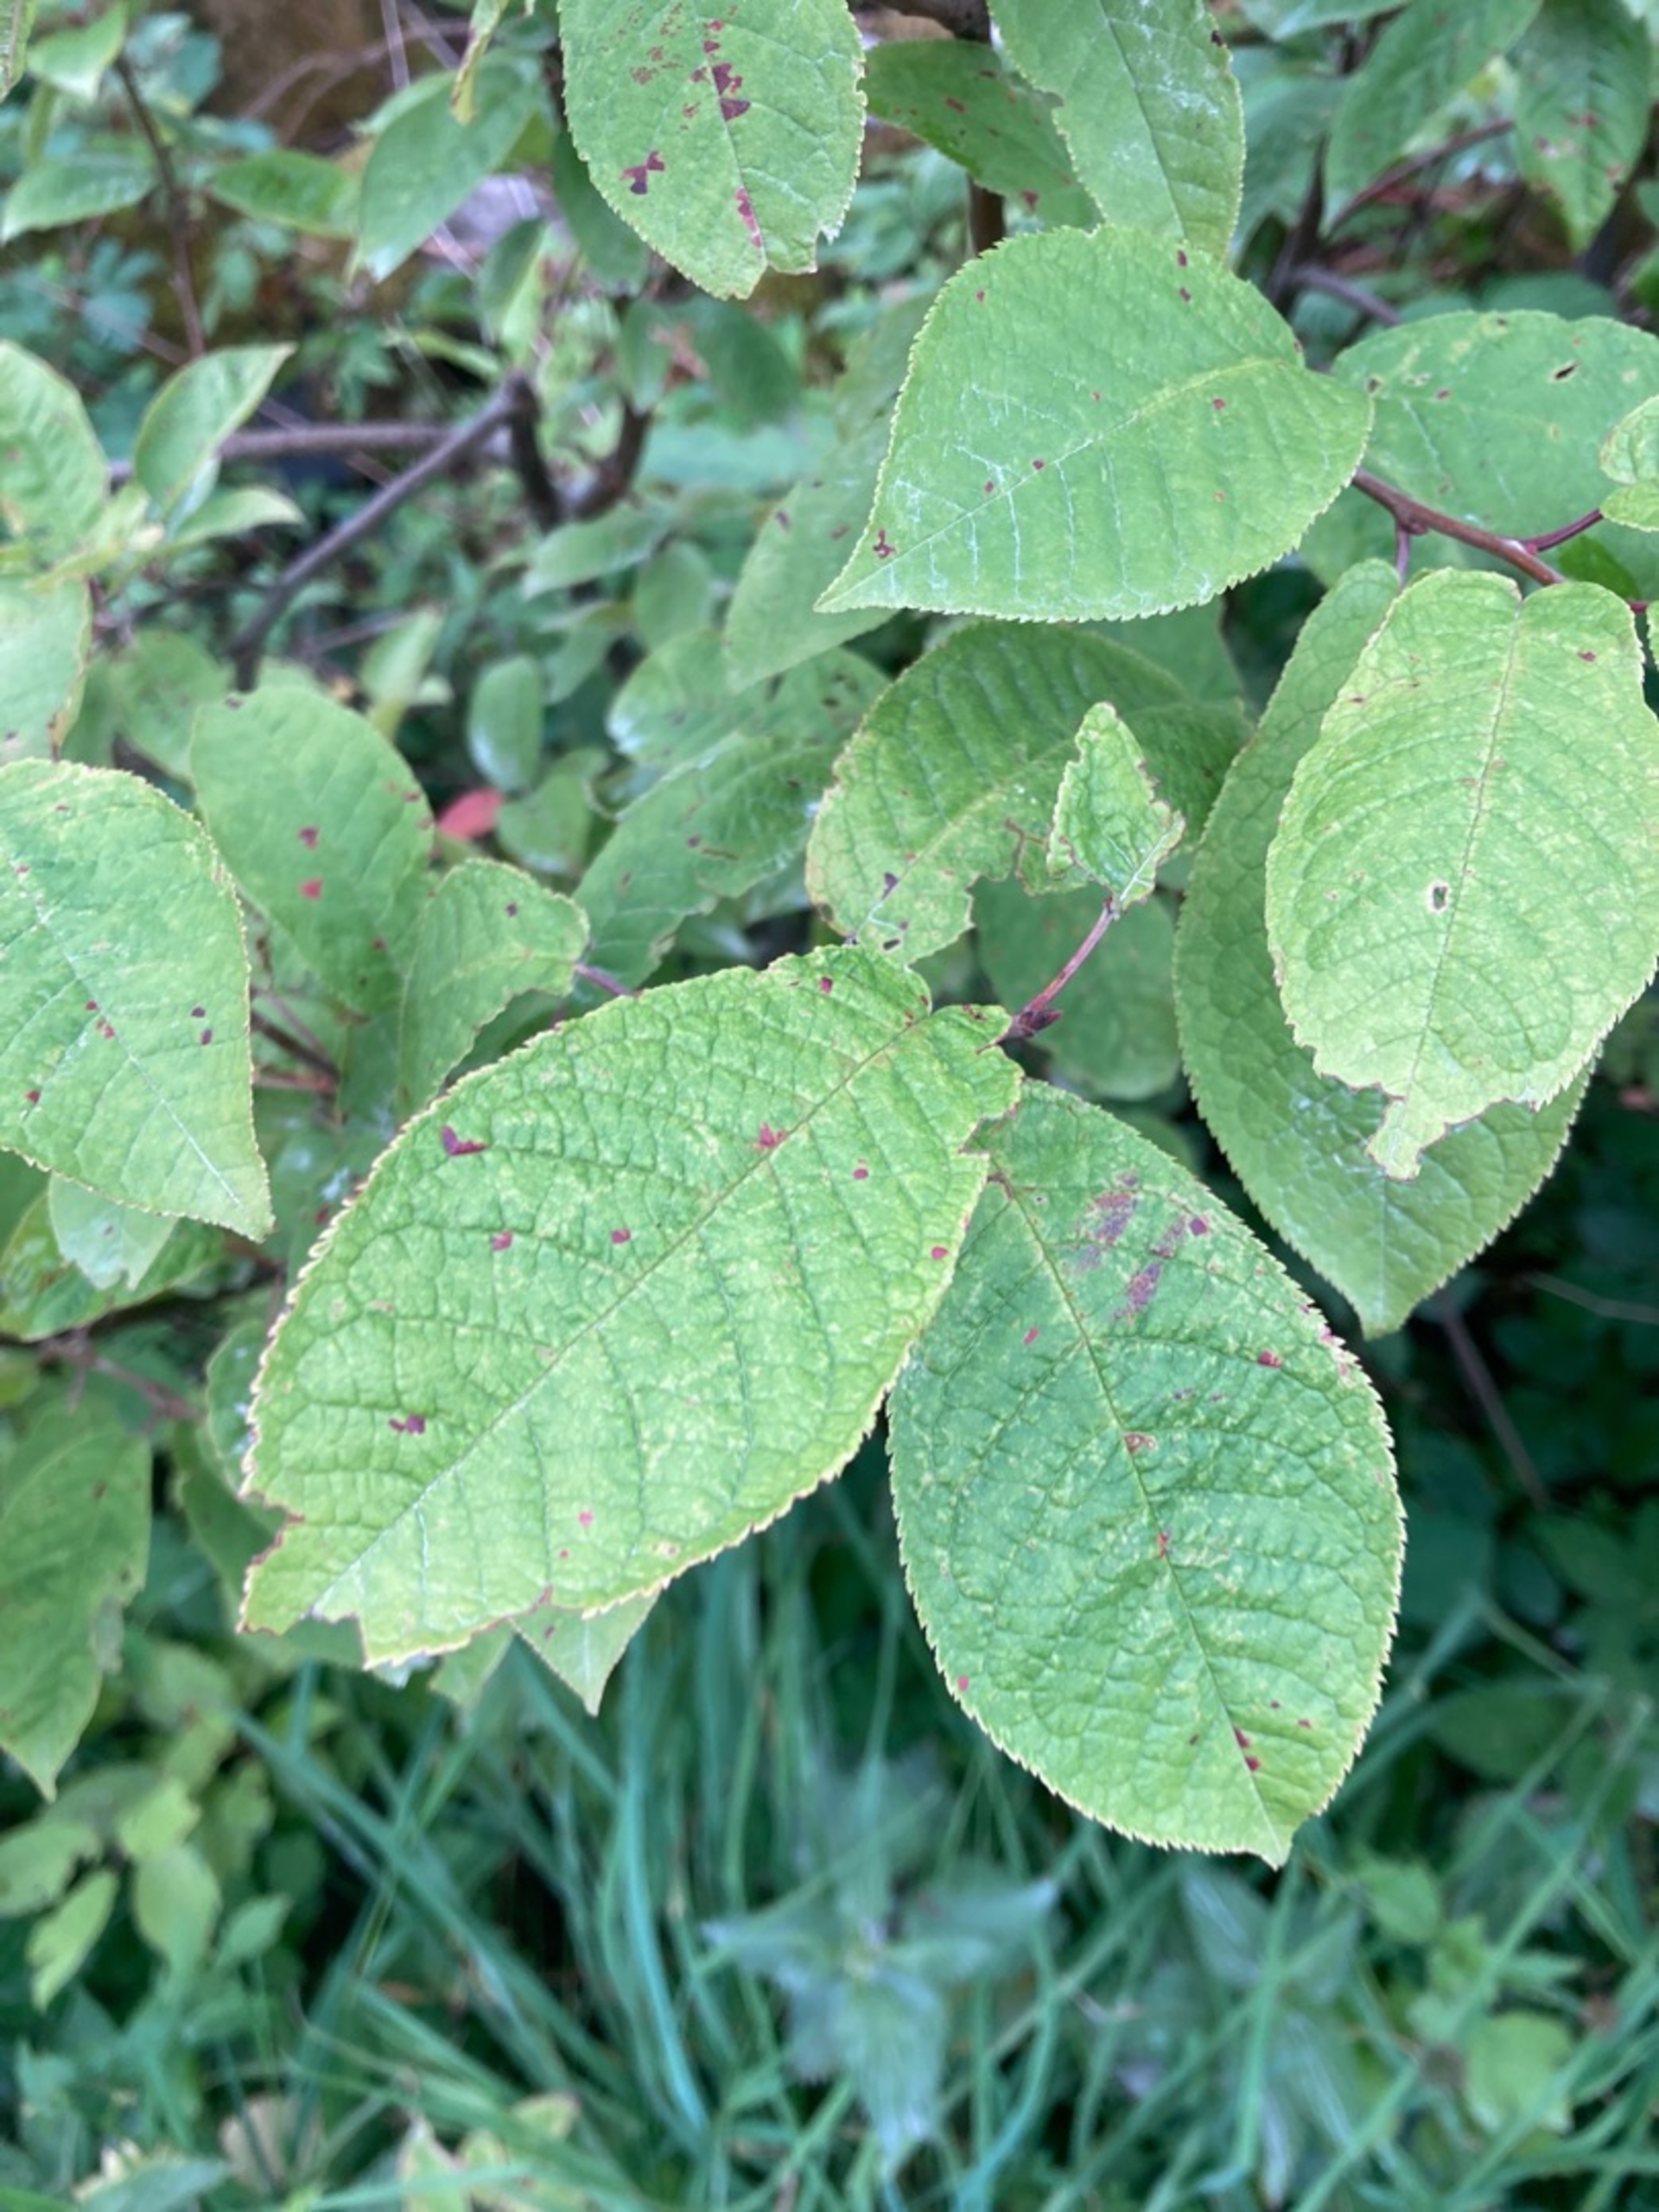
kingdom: Plantae
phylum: Tracheophyta
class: Magnoliopsida
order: Rosales
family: Rosaceae
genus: Prunus
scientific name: Prunus padus
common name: Almindelig hæg
